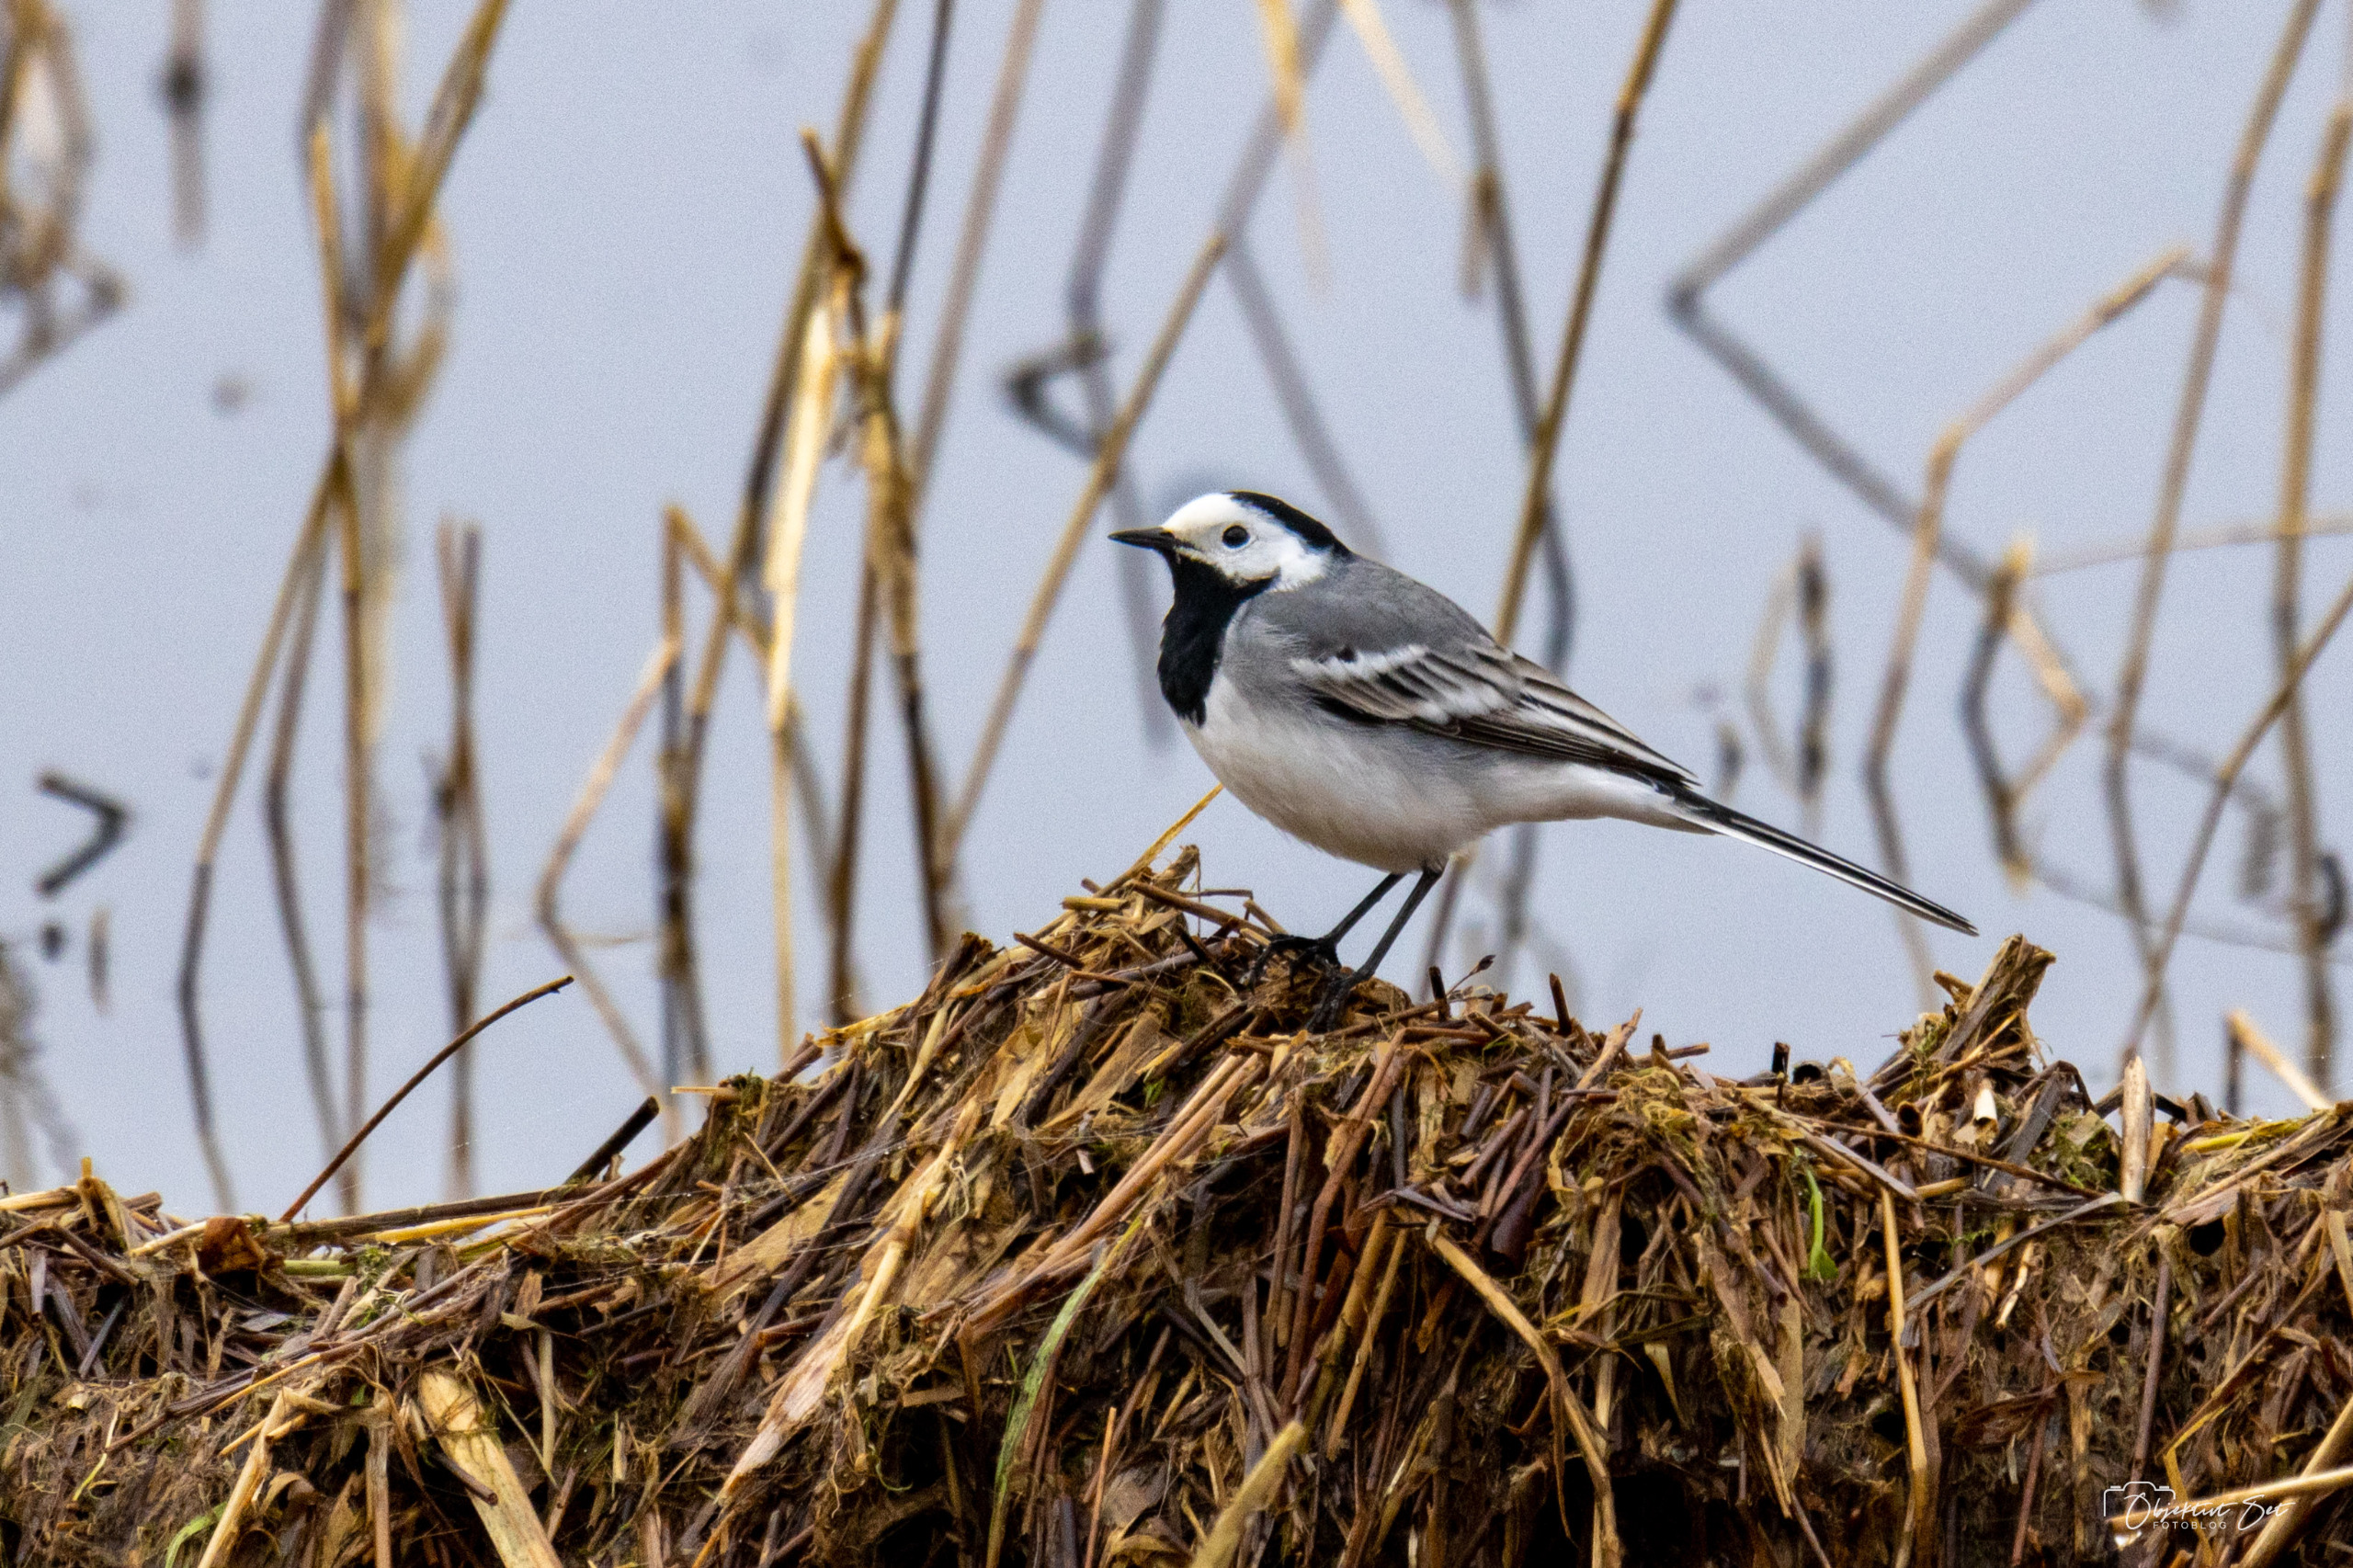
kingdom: Animalia
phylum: Chordata
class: Aves
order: Passeriformes
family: Motacillidae
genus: Motacilla
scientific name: Motacilla alba
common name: Hvid vipstjert
